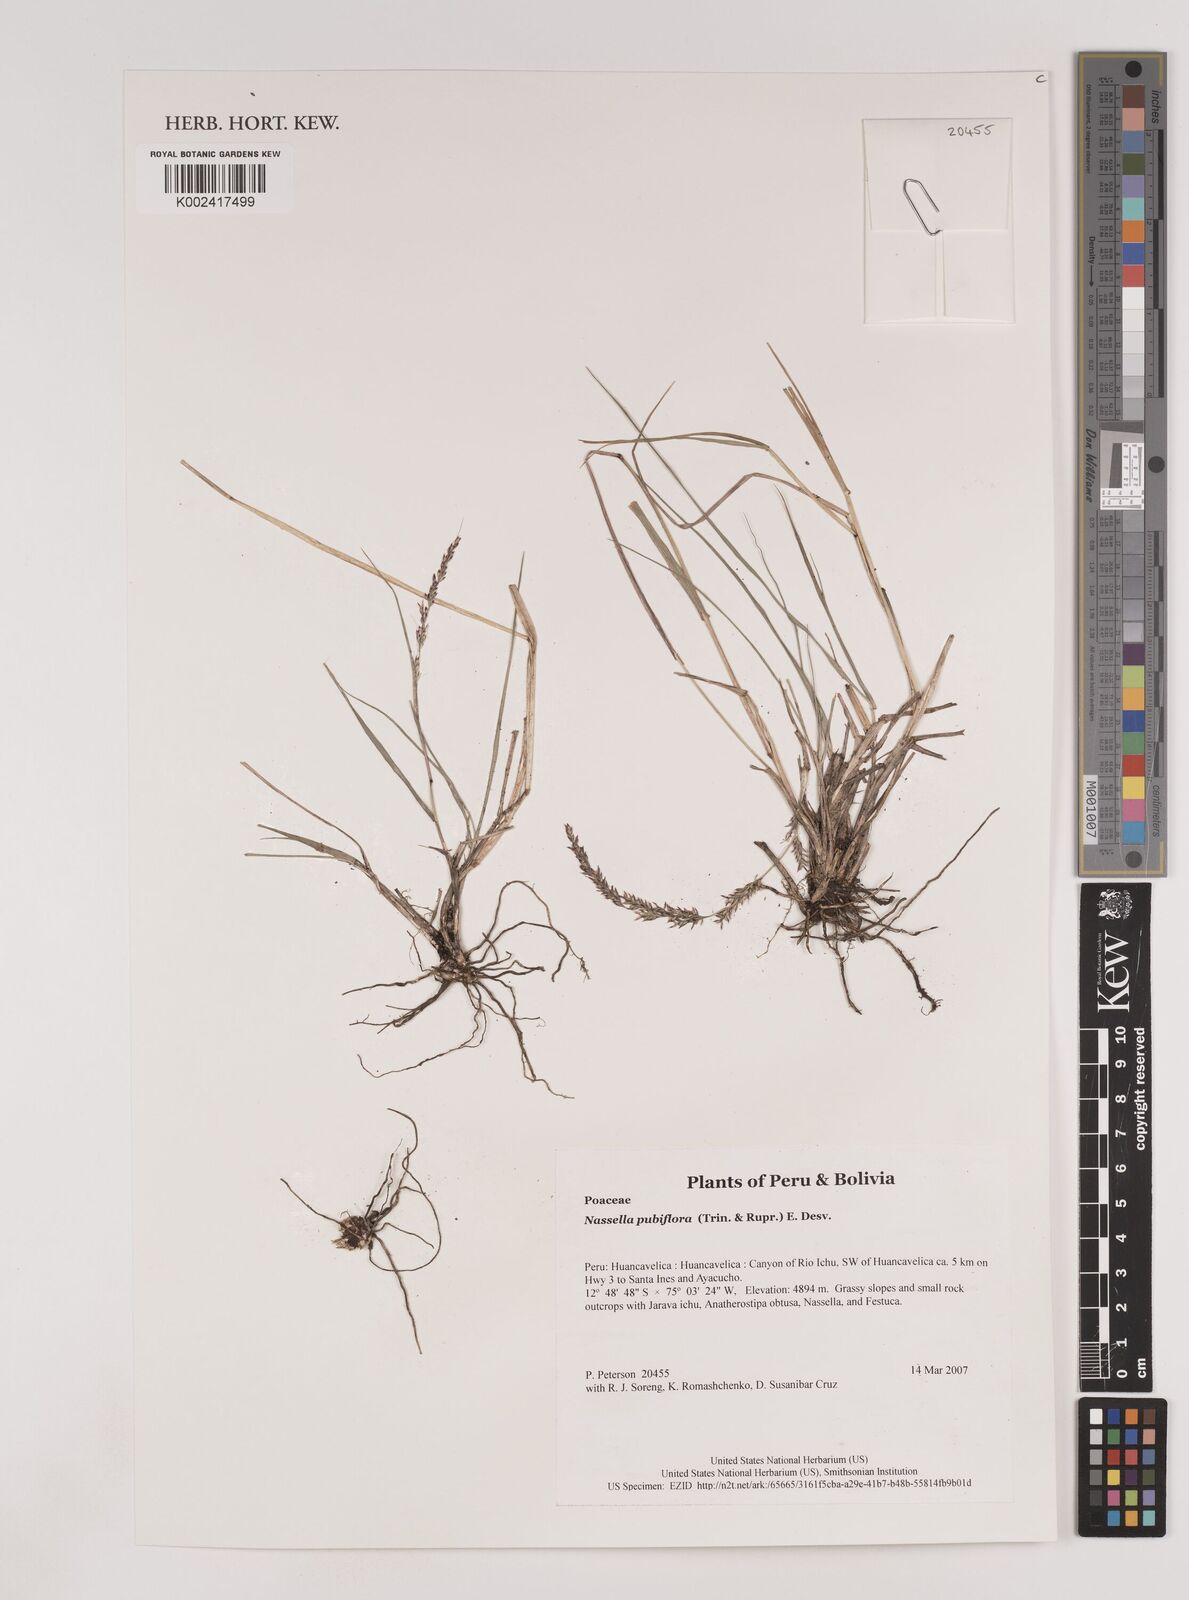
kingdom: Plantae
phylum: Tracheophyta
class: Liliopsida
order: Poales
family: Poaceae
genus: Nassella
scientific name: Nassella pubiflora
